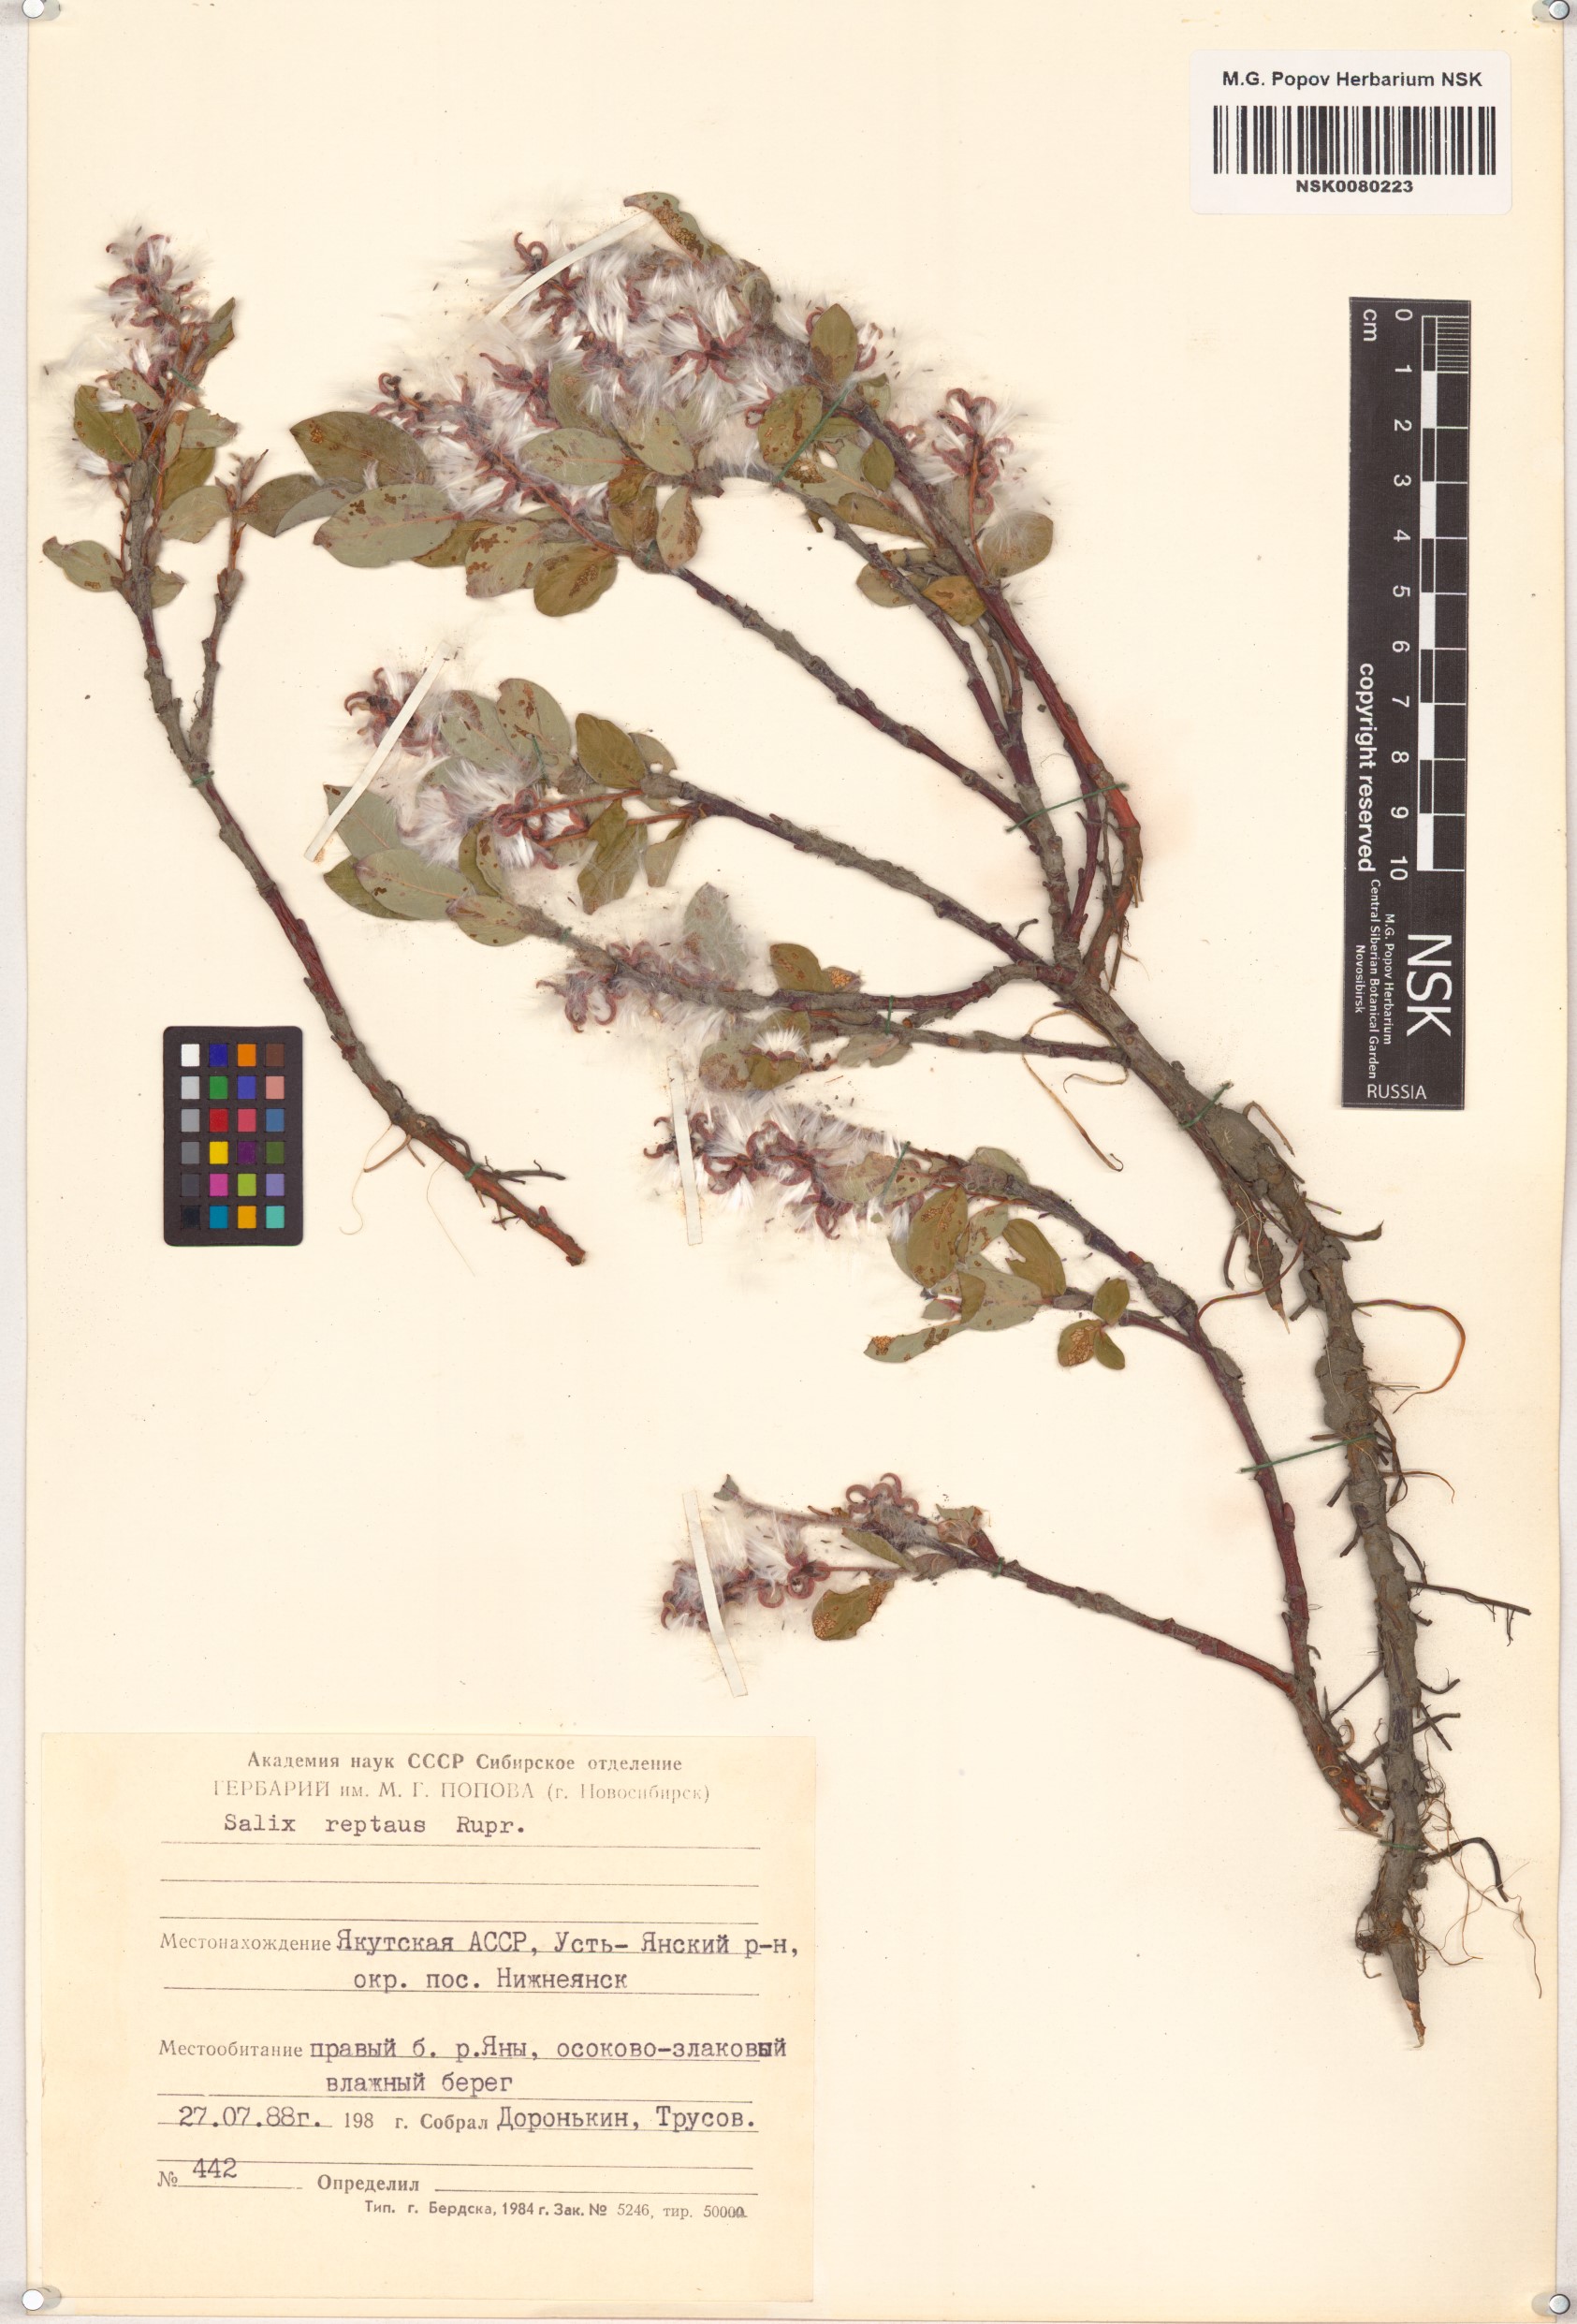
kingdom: Plantae
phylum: Tracheophyta
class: Magnoliopsida
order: Malpighiales
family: Salicaceae
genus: Salix
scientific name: Salix reptans
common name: Arctic creeping willow
